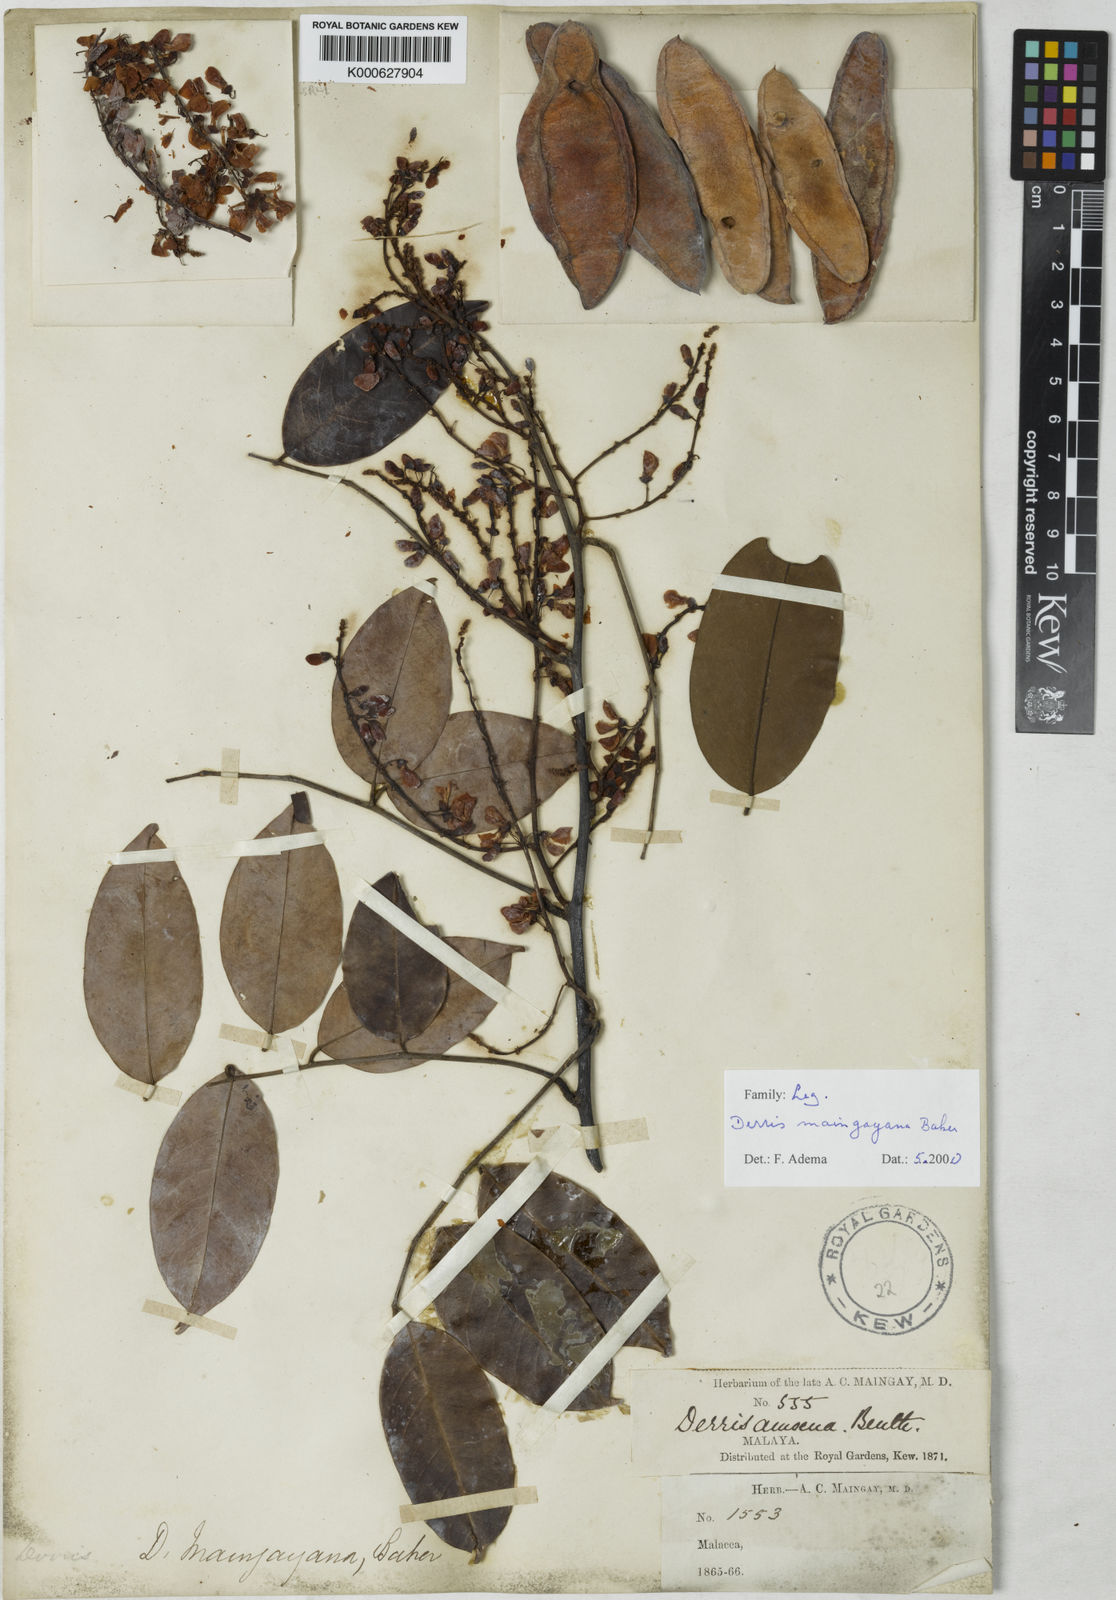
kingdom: Plantae
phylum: Tracheophyta
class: Magnoliopsida
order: Fabales
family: Fabaceae
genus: Derris
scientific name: Derris amoena
